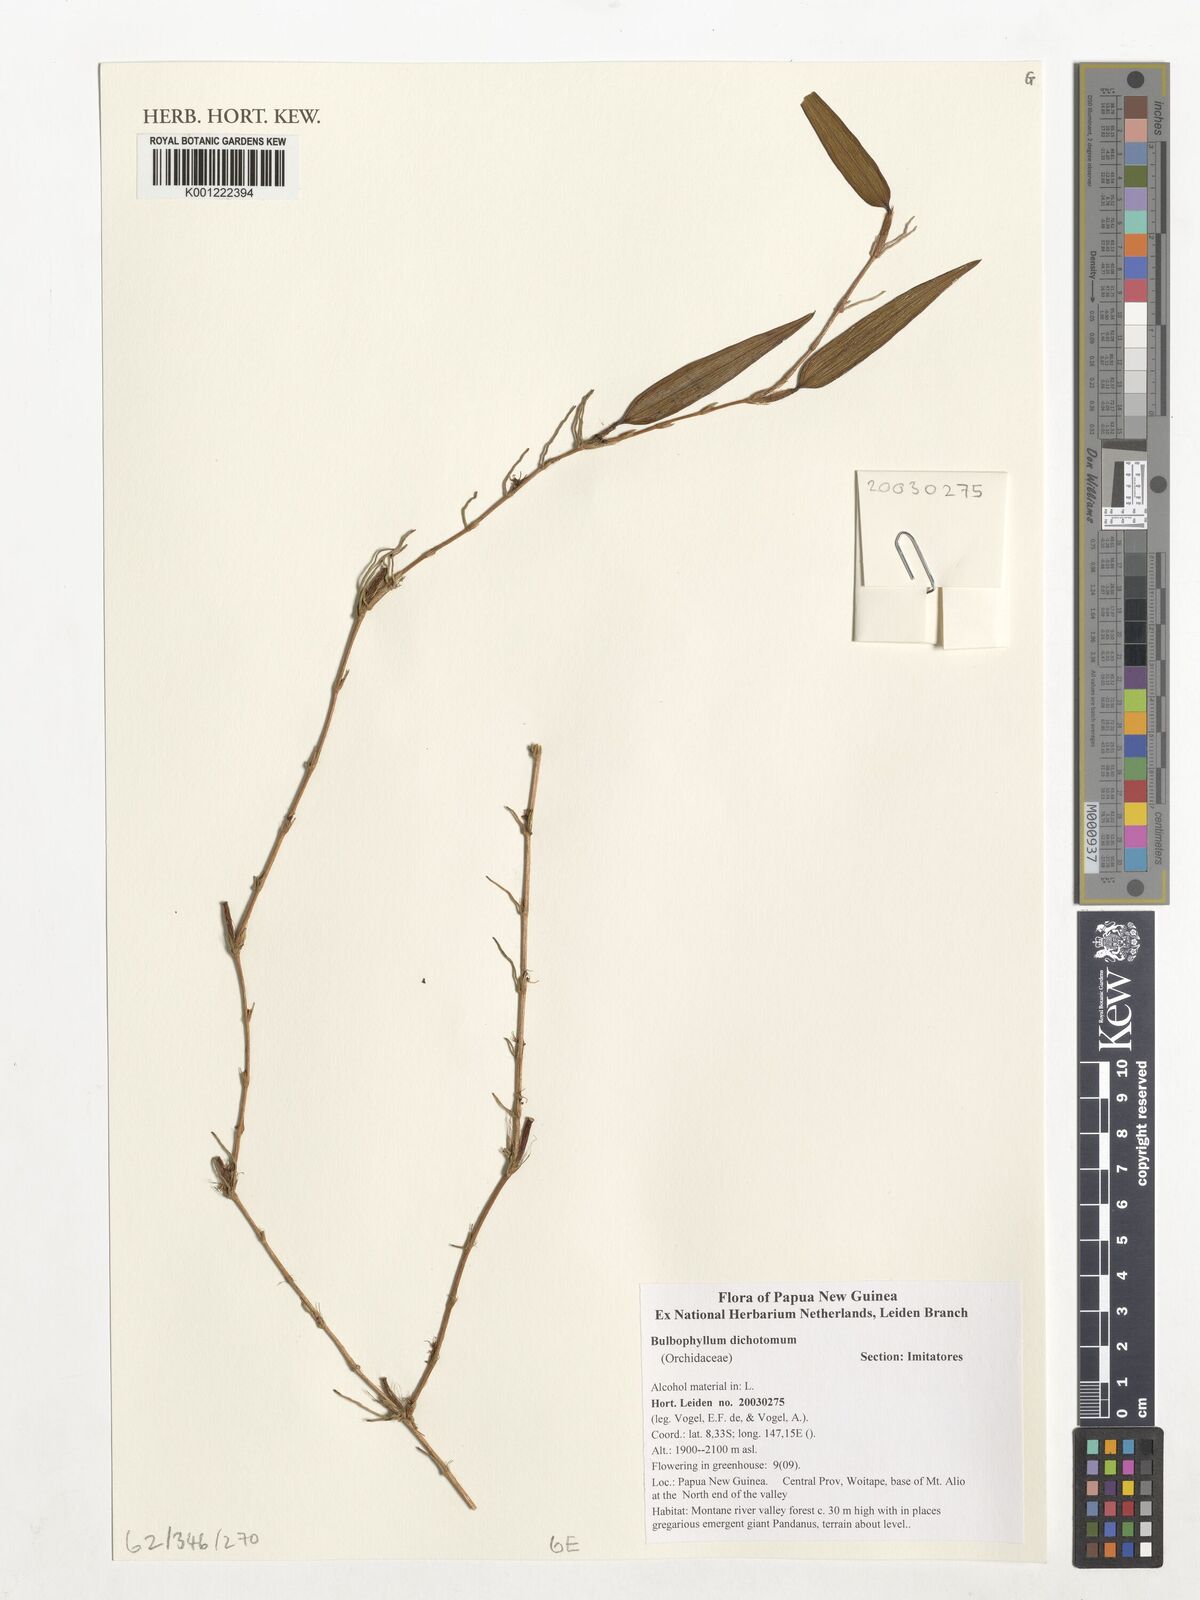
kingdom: Plantae
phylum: Tracheophyta
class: Liliopsida
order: Asparagales
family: Orchidaceae
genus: Bulbophyllum
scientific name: Bulbophyllum dichotomum
